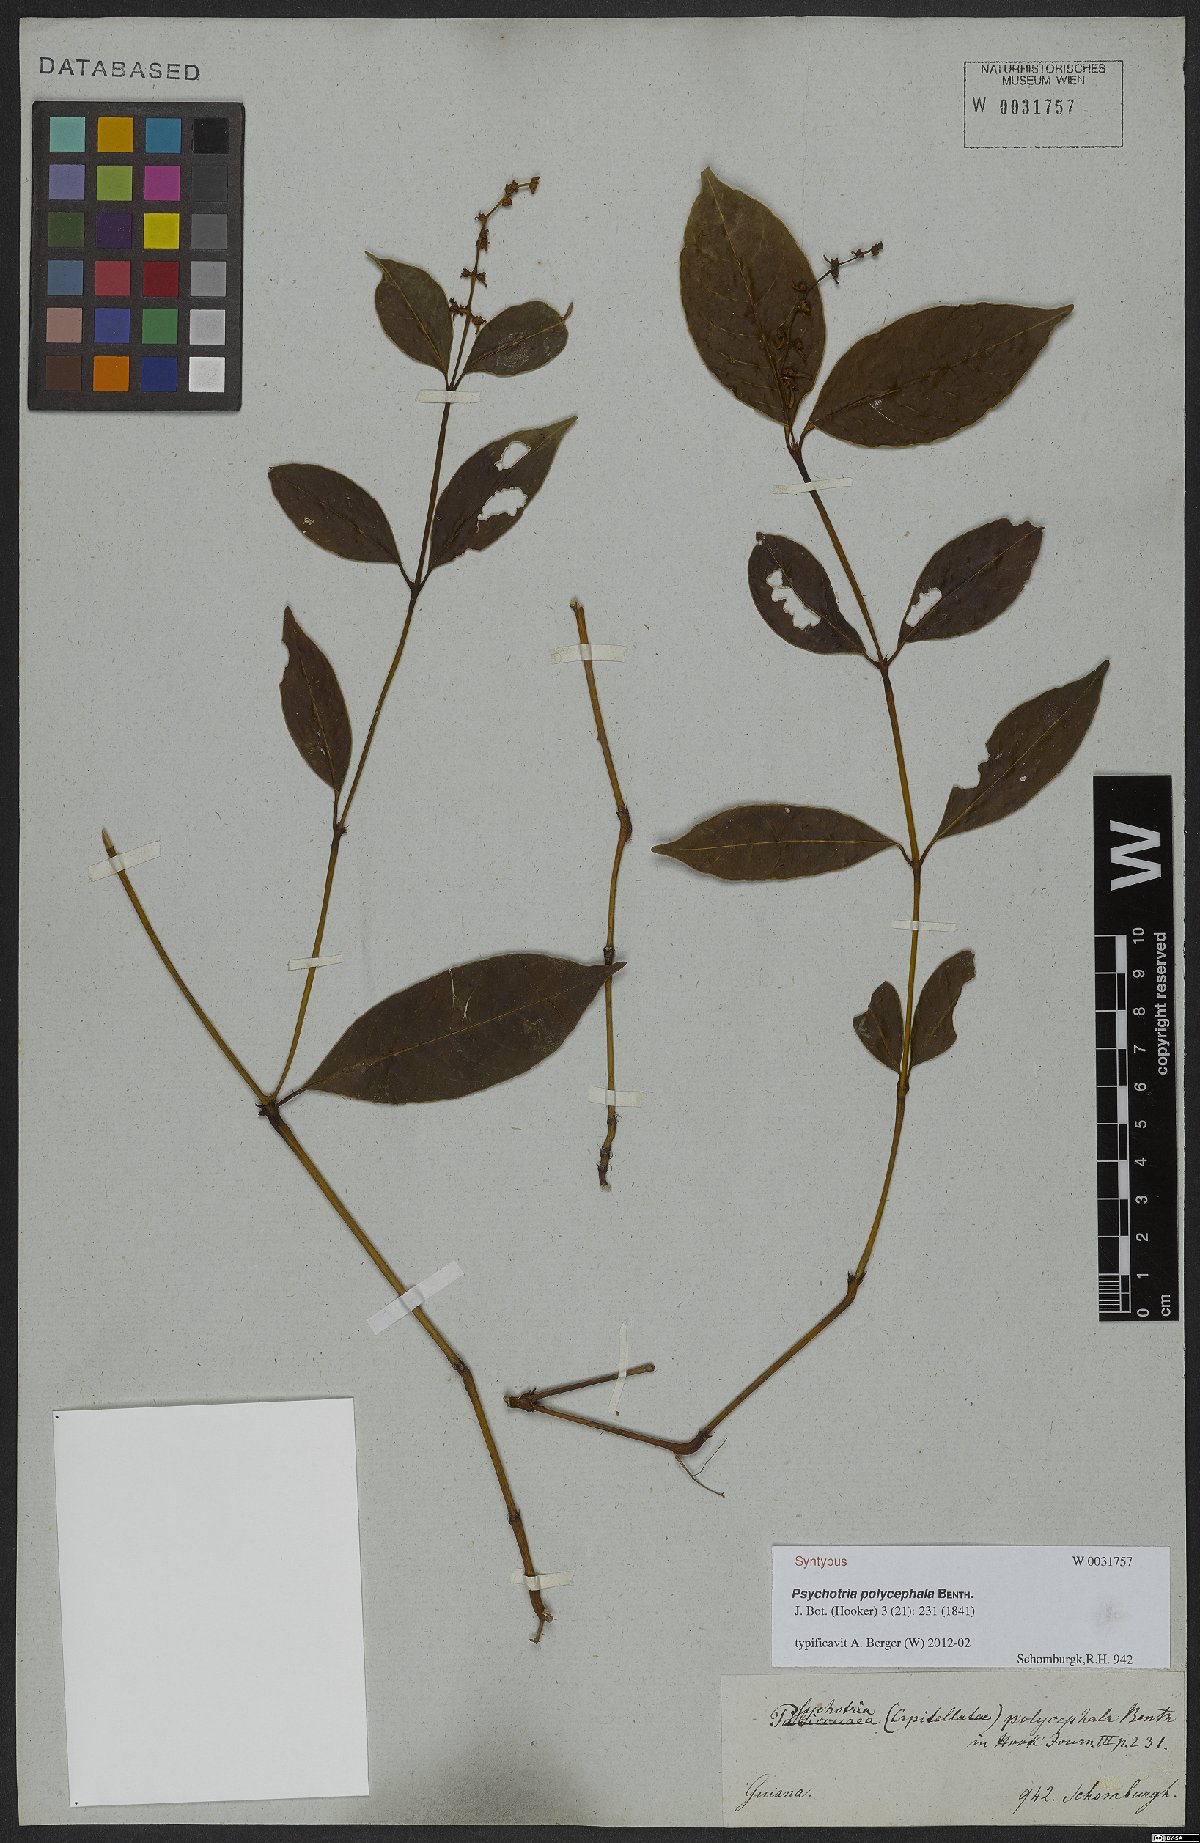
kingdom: Plantae
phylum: Tracheophyta
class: Magnoliopsida
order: Gentianales
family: Rubiaceae
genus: Palicourea
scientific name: Palicourea polycephala
